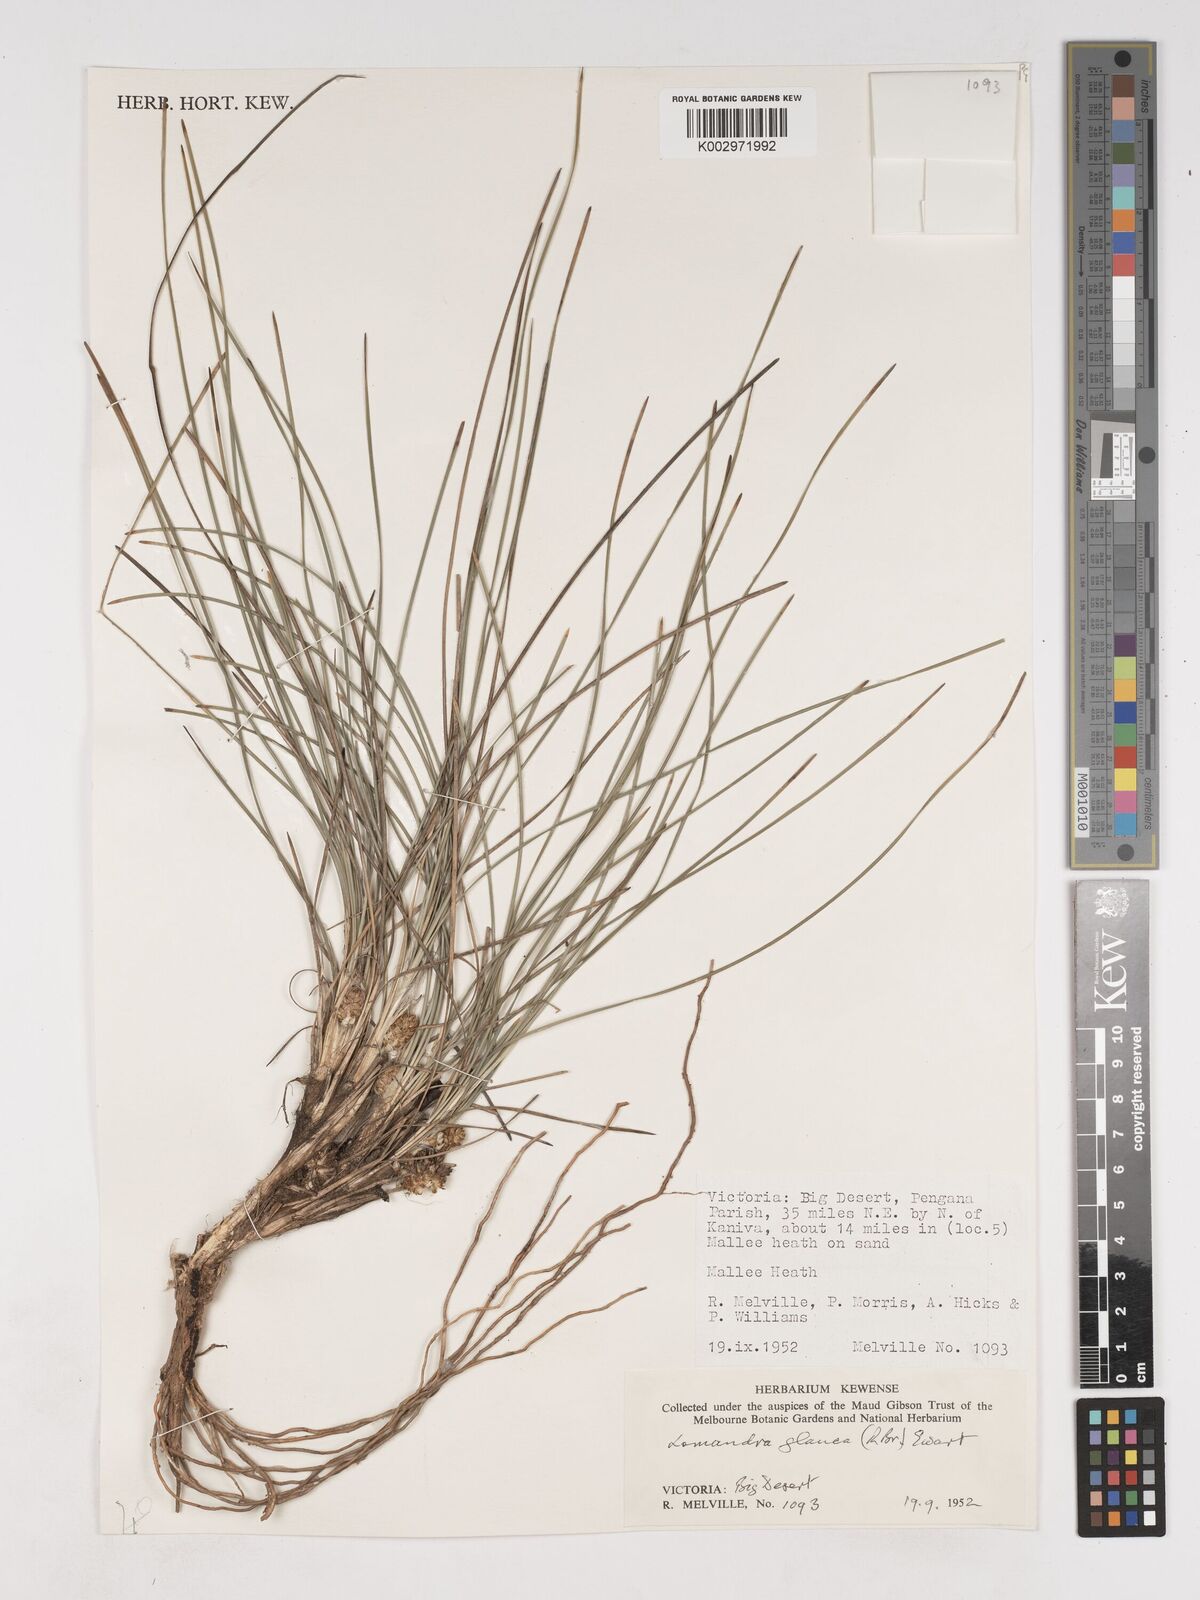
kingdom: Plantae
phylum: Tracheophyta
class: Liliopsida
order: Asparagales
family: Asparagaceae
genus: Lomandra
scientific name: Lomandra glauca
